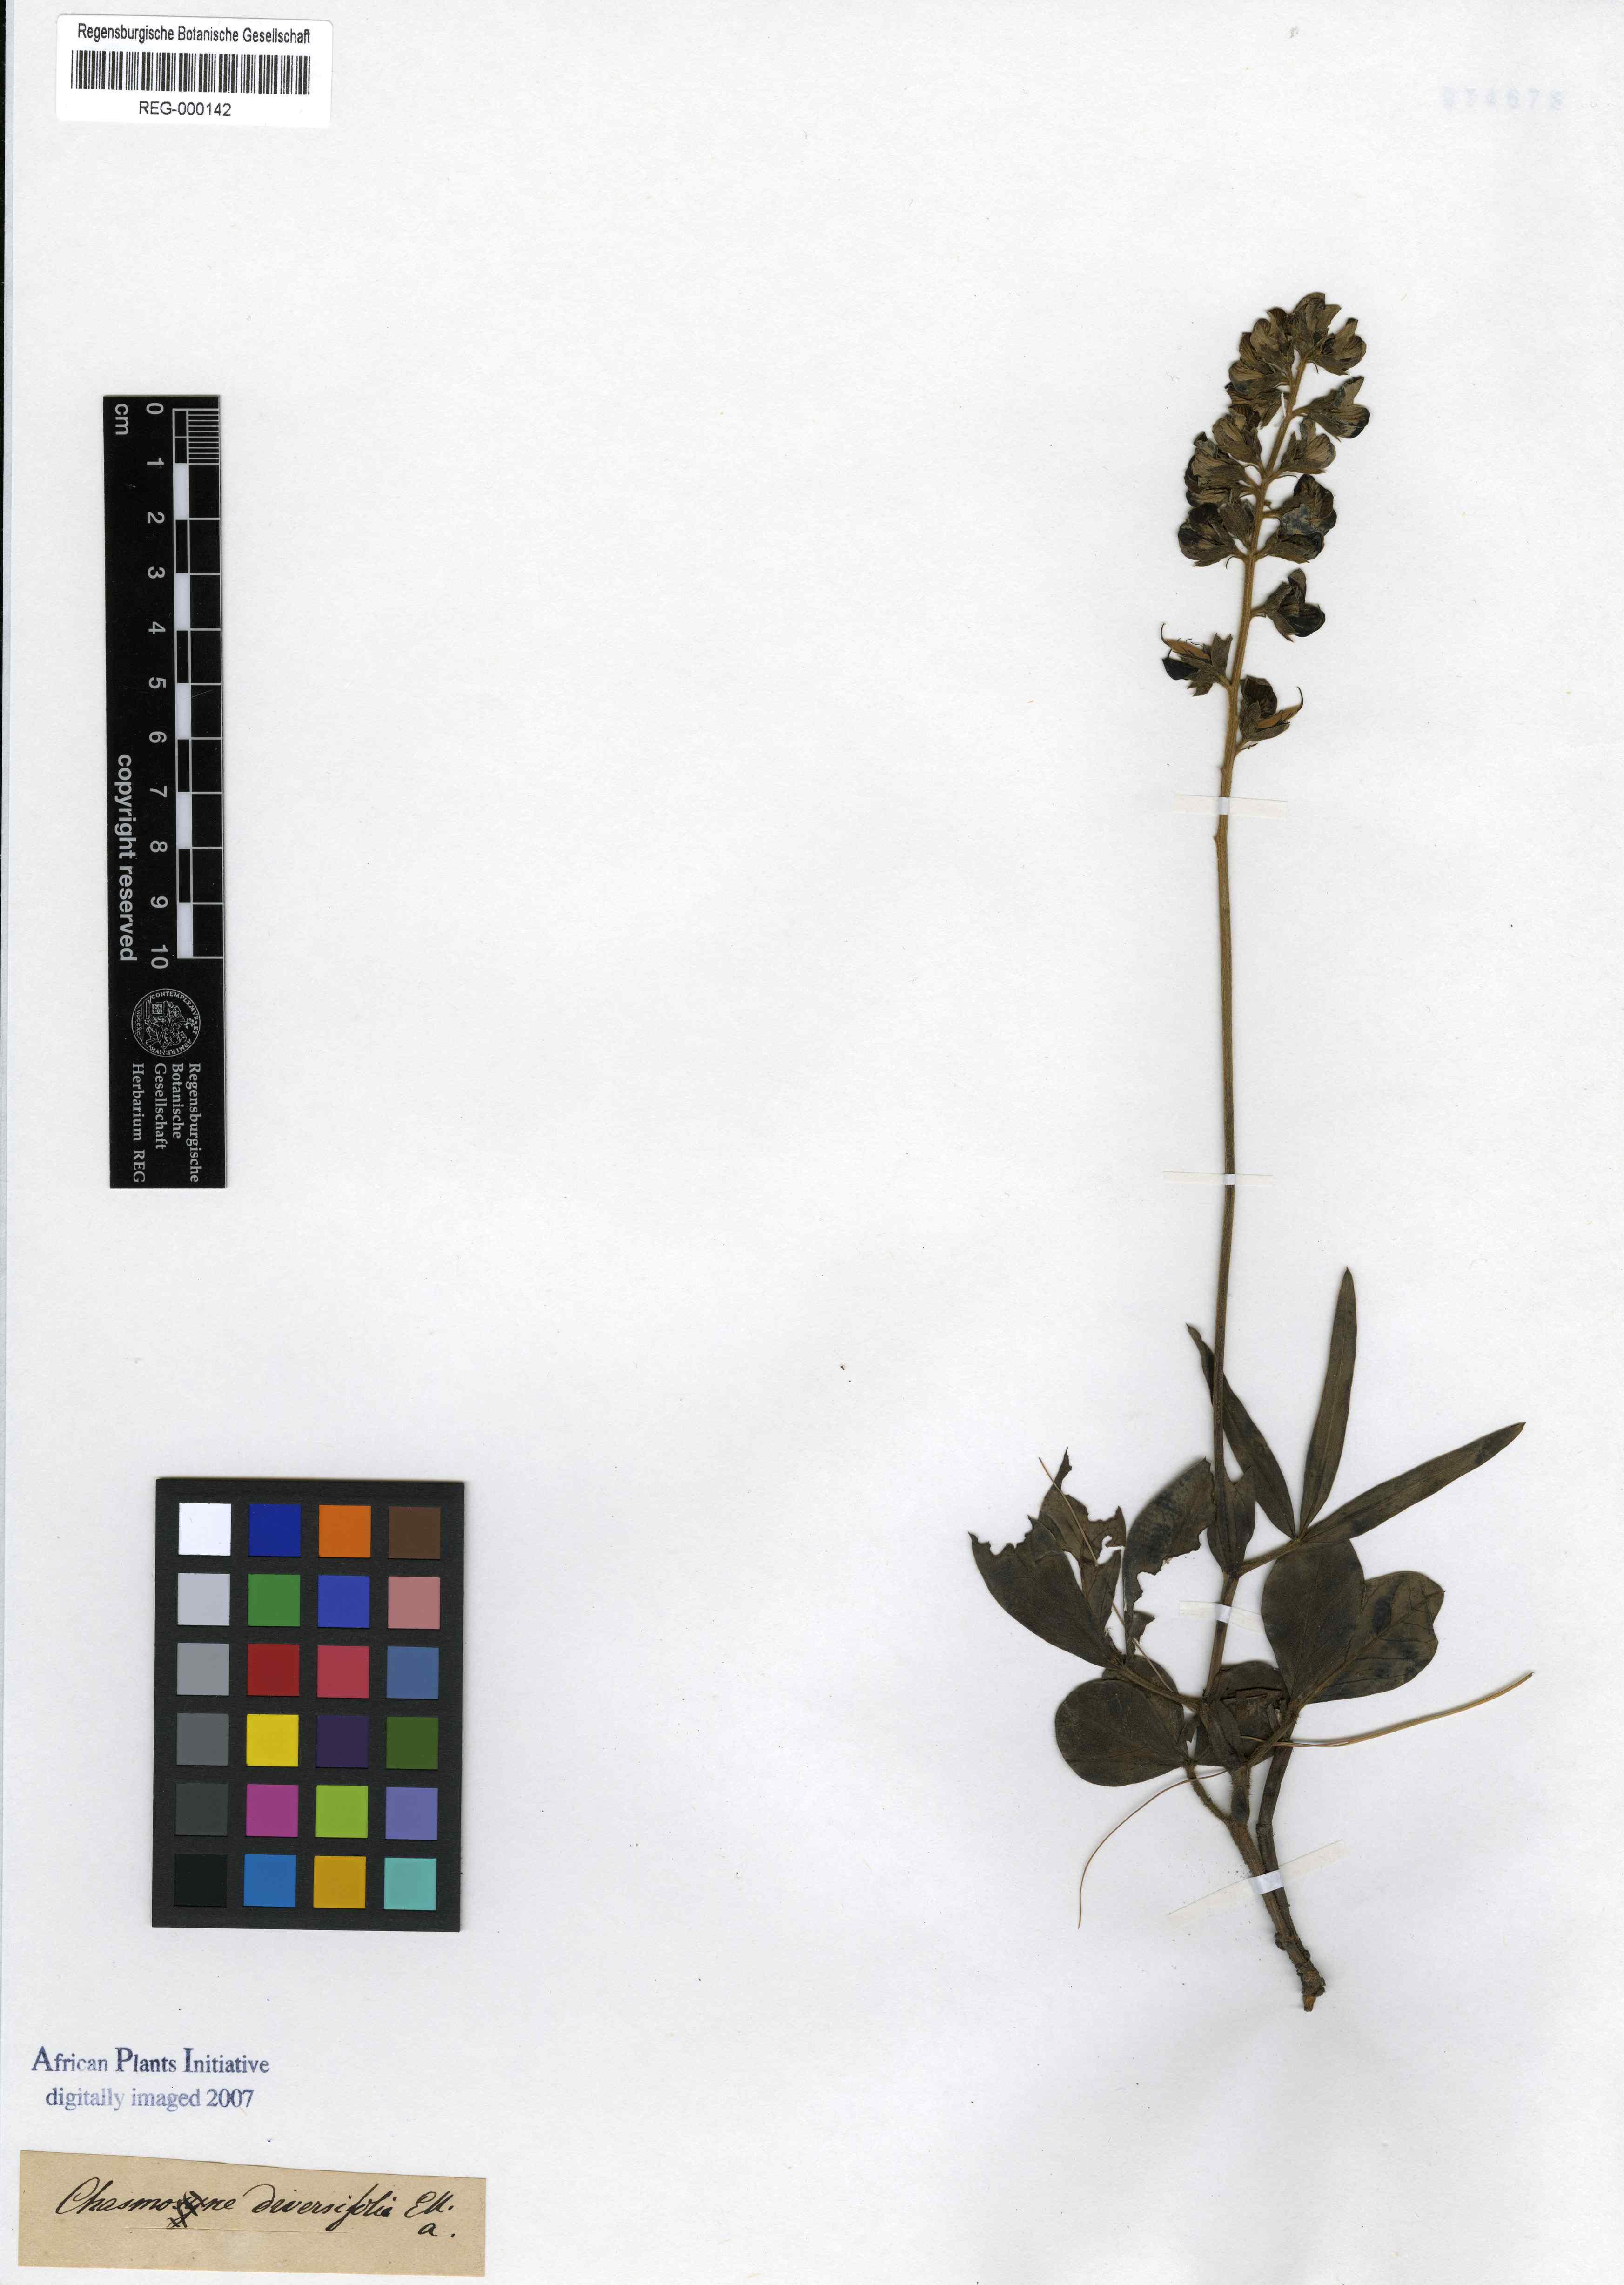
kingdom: Plantae
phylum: Tracheophyta
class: Magnoliopsida
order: Fabales
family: Fabaceae
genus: Argyrolobium
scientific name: Argyrolobium speciosum
